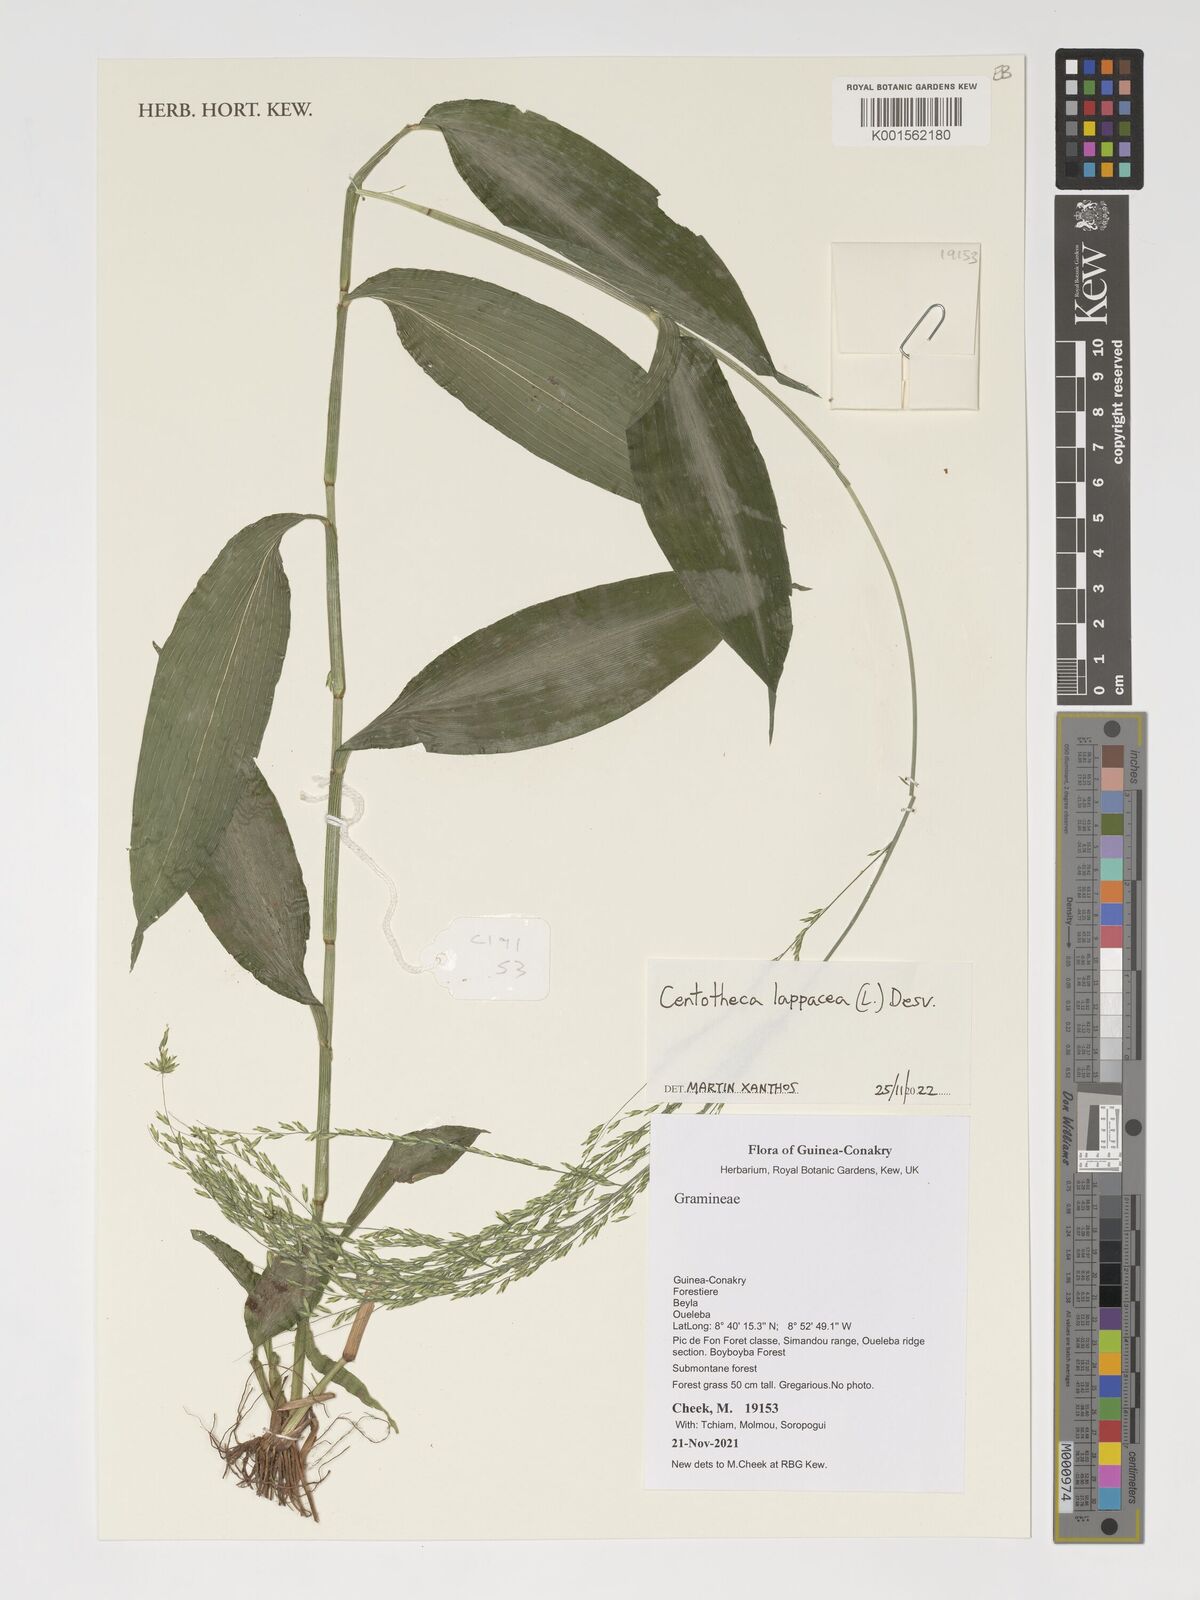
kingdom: Plantae
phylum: Tracheophyta
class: Liliopsida
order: Poales
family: Poaceae
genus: Centotheca
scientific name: Centotheca lappacea
